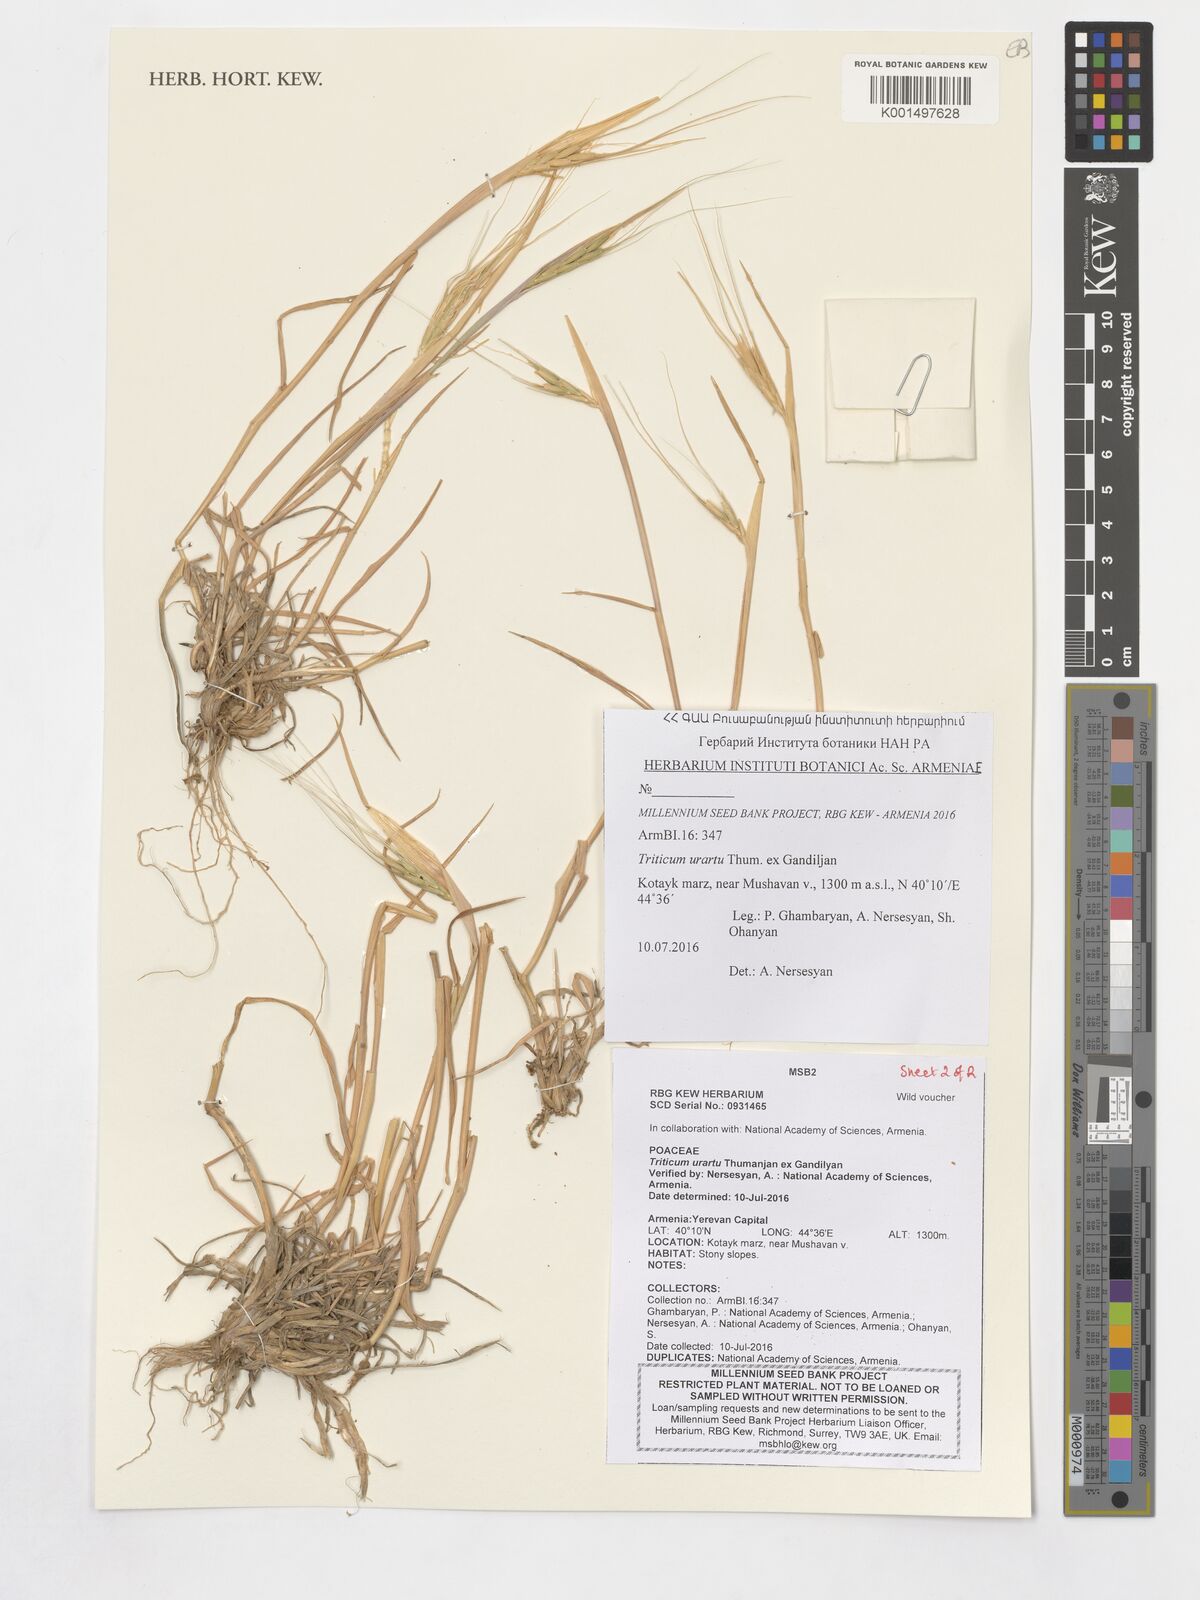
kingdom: Plantae
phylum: Tracheophyta
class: Liliopsida
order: Poales
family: Poaceae
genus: Triticum
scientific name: Triticum urartu
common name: Red wild einkorn
